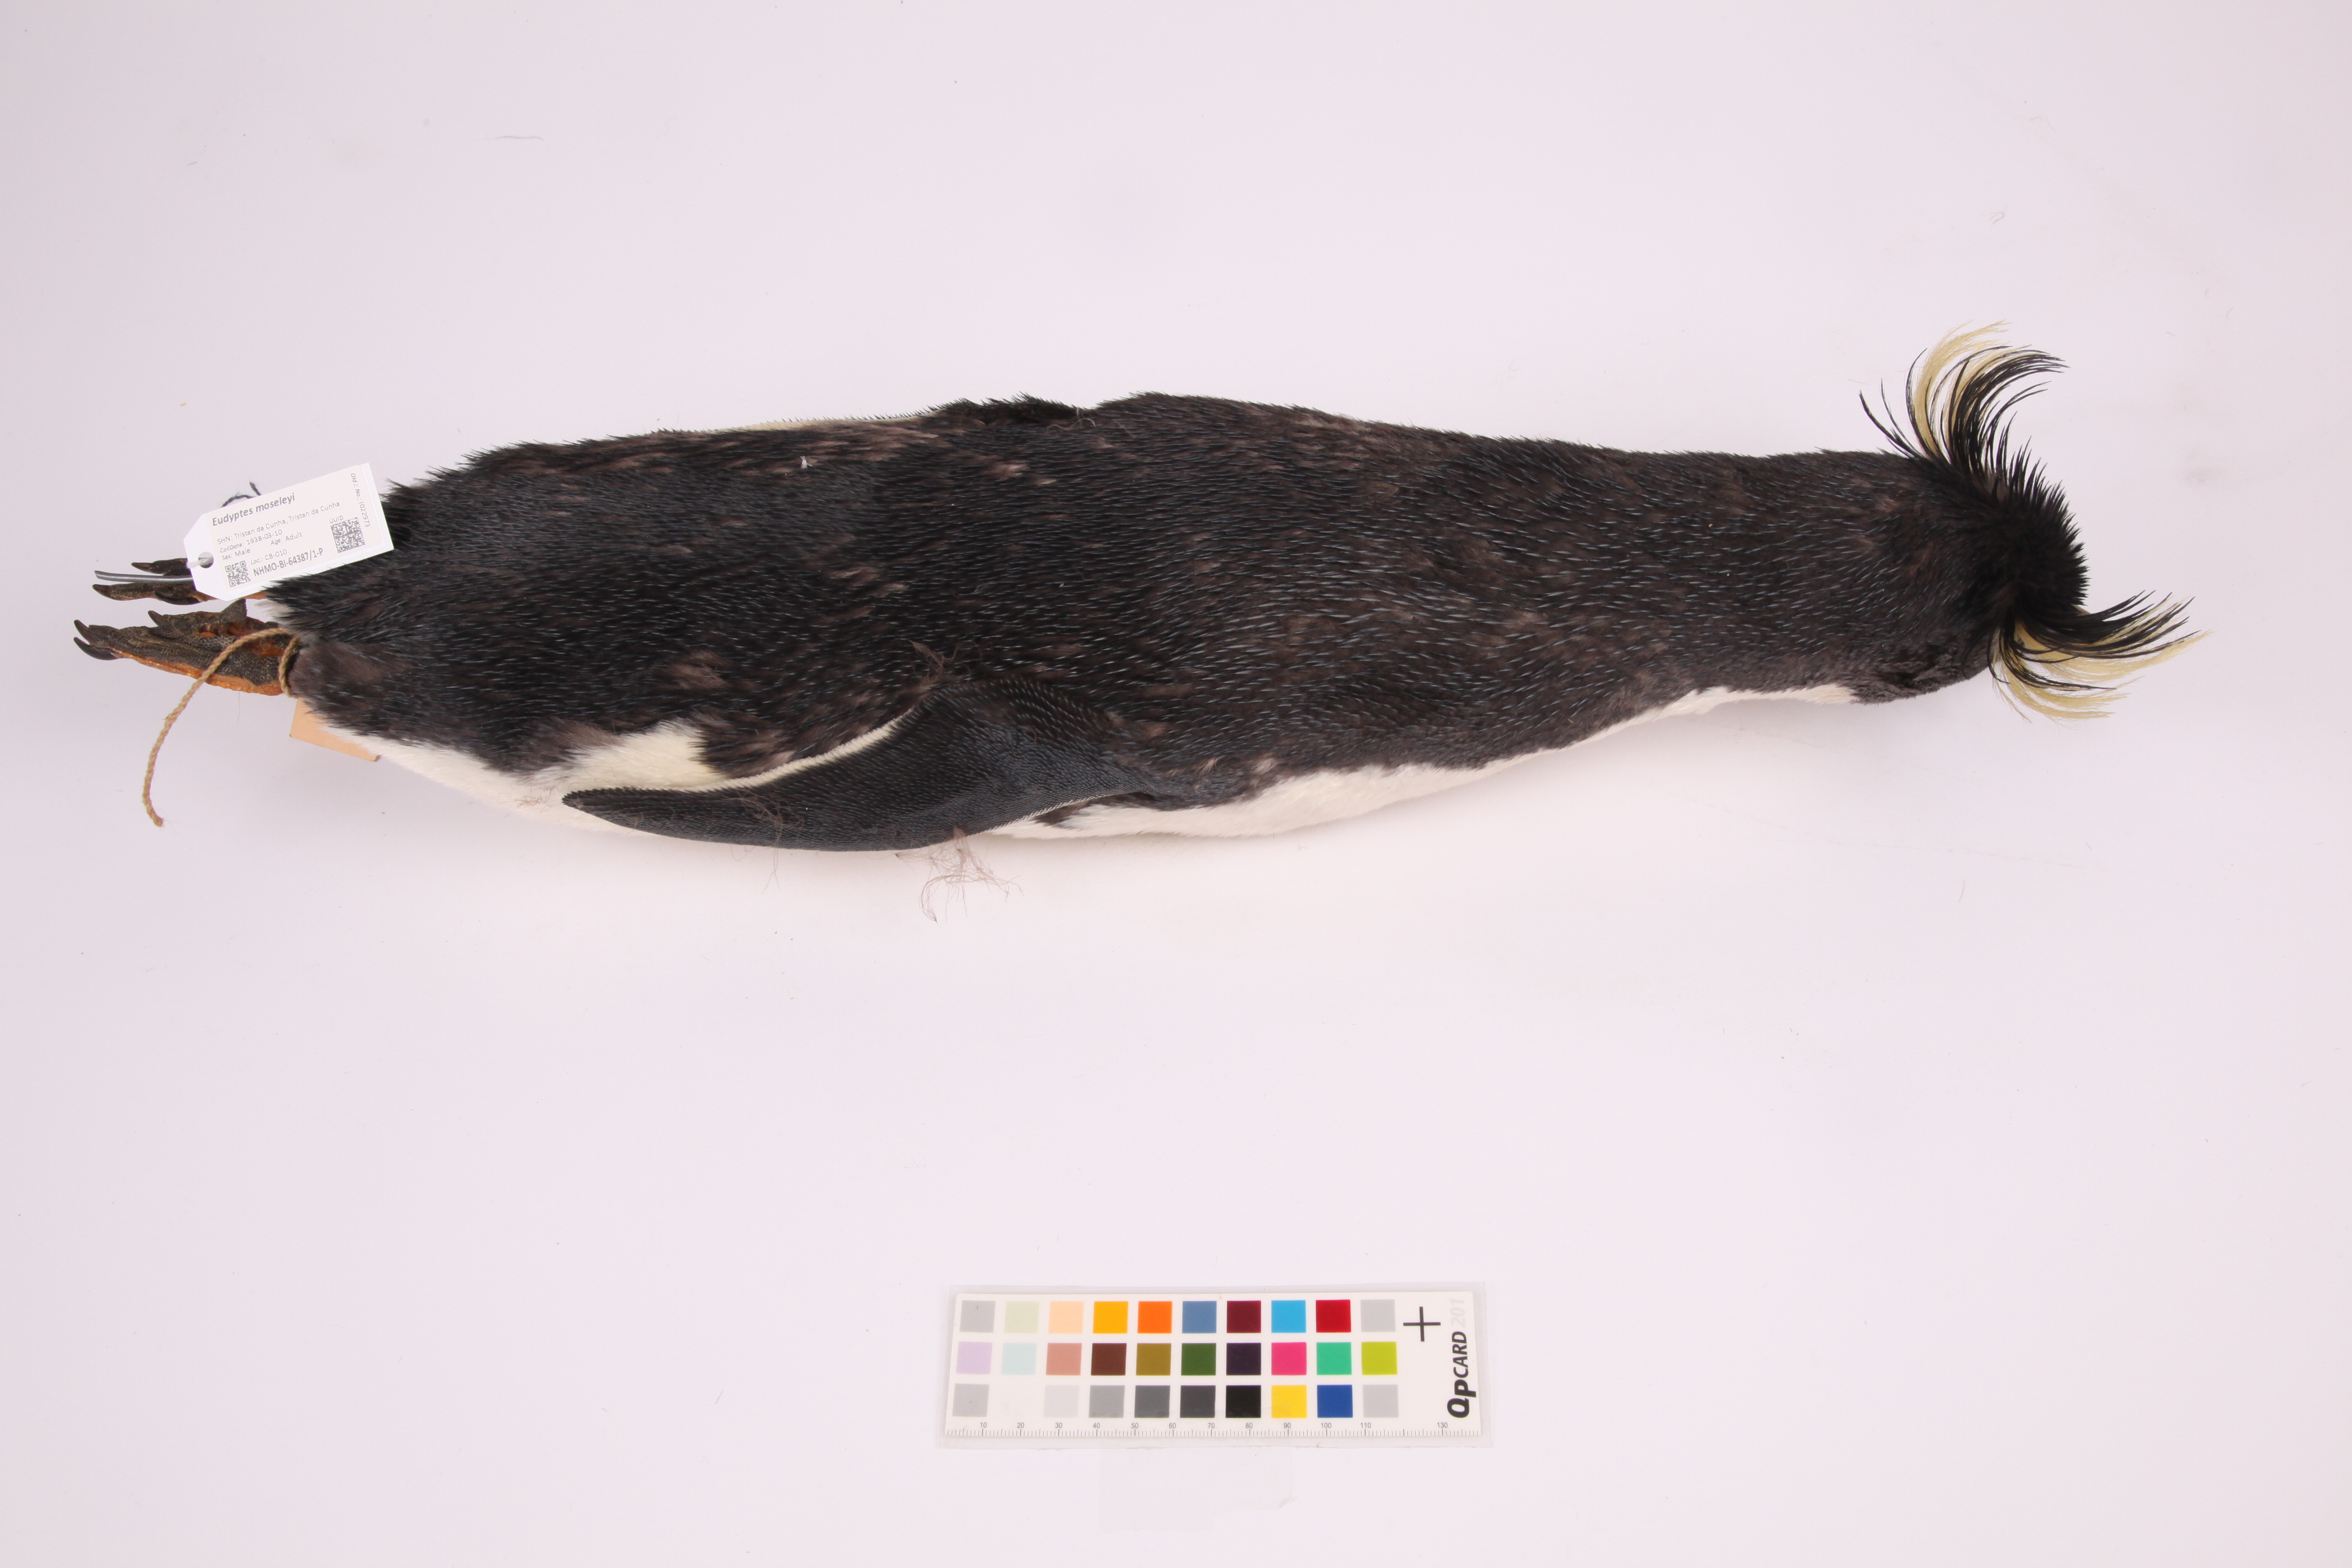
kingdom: Animalia
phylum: Chordata
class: Aves
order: Sphenisciformes
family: Spheniscidae
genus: Eudyptes
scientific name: Eudyptes moseleyi
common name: Northern rockhopper penguin
